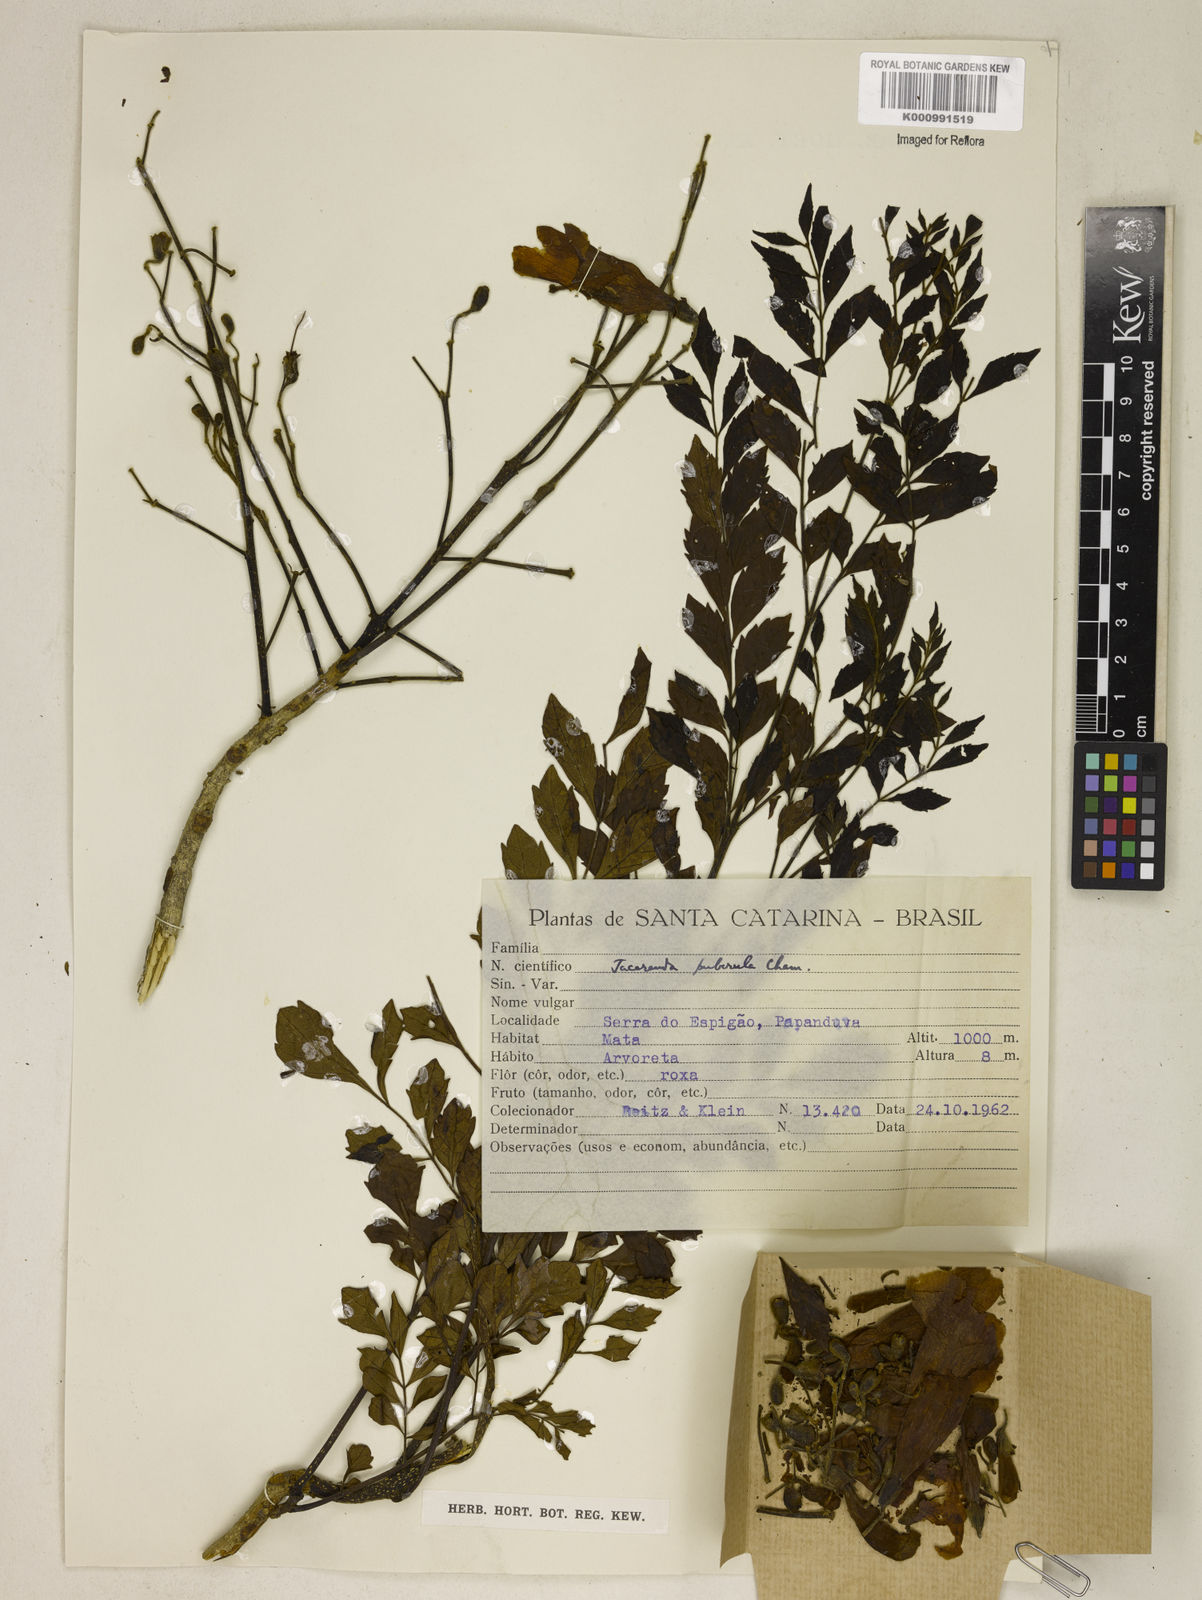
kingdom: Plantae
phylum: Tracheophyta
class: Magnoliopsida
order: Lamiales
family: Bignoniaceae
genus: Jacaranda
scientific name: Jacaranda puberula
